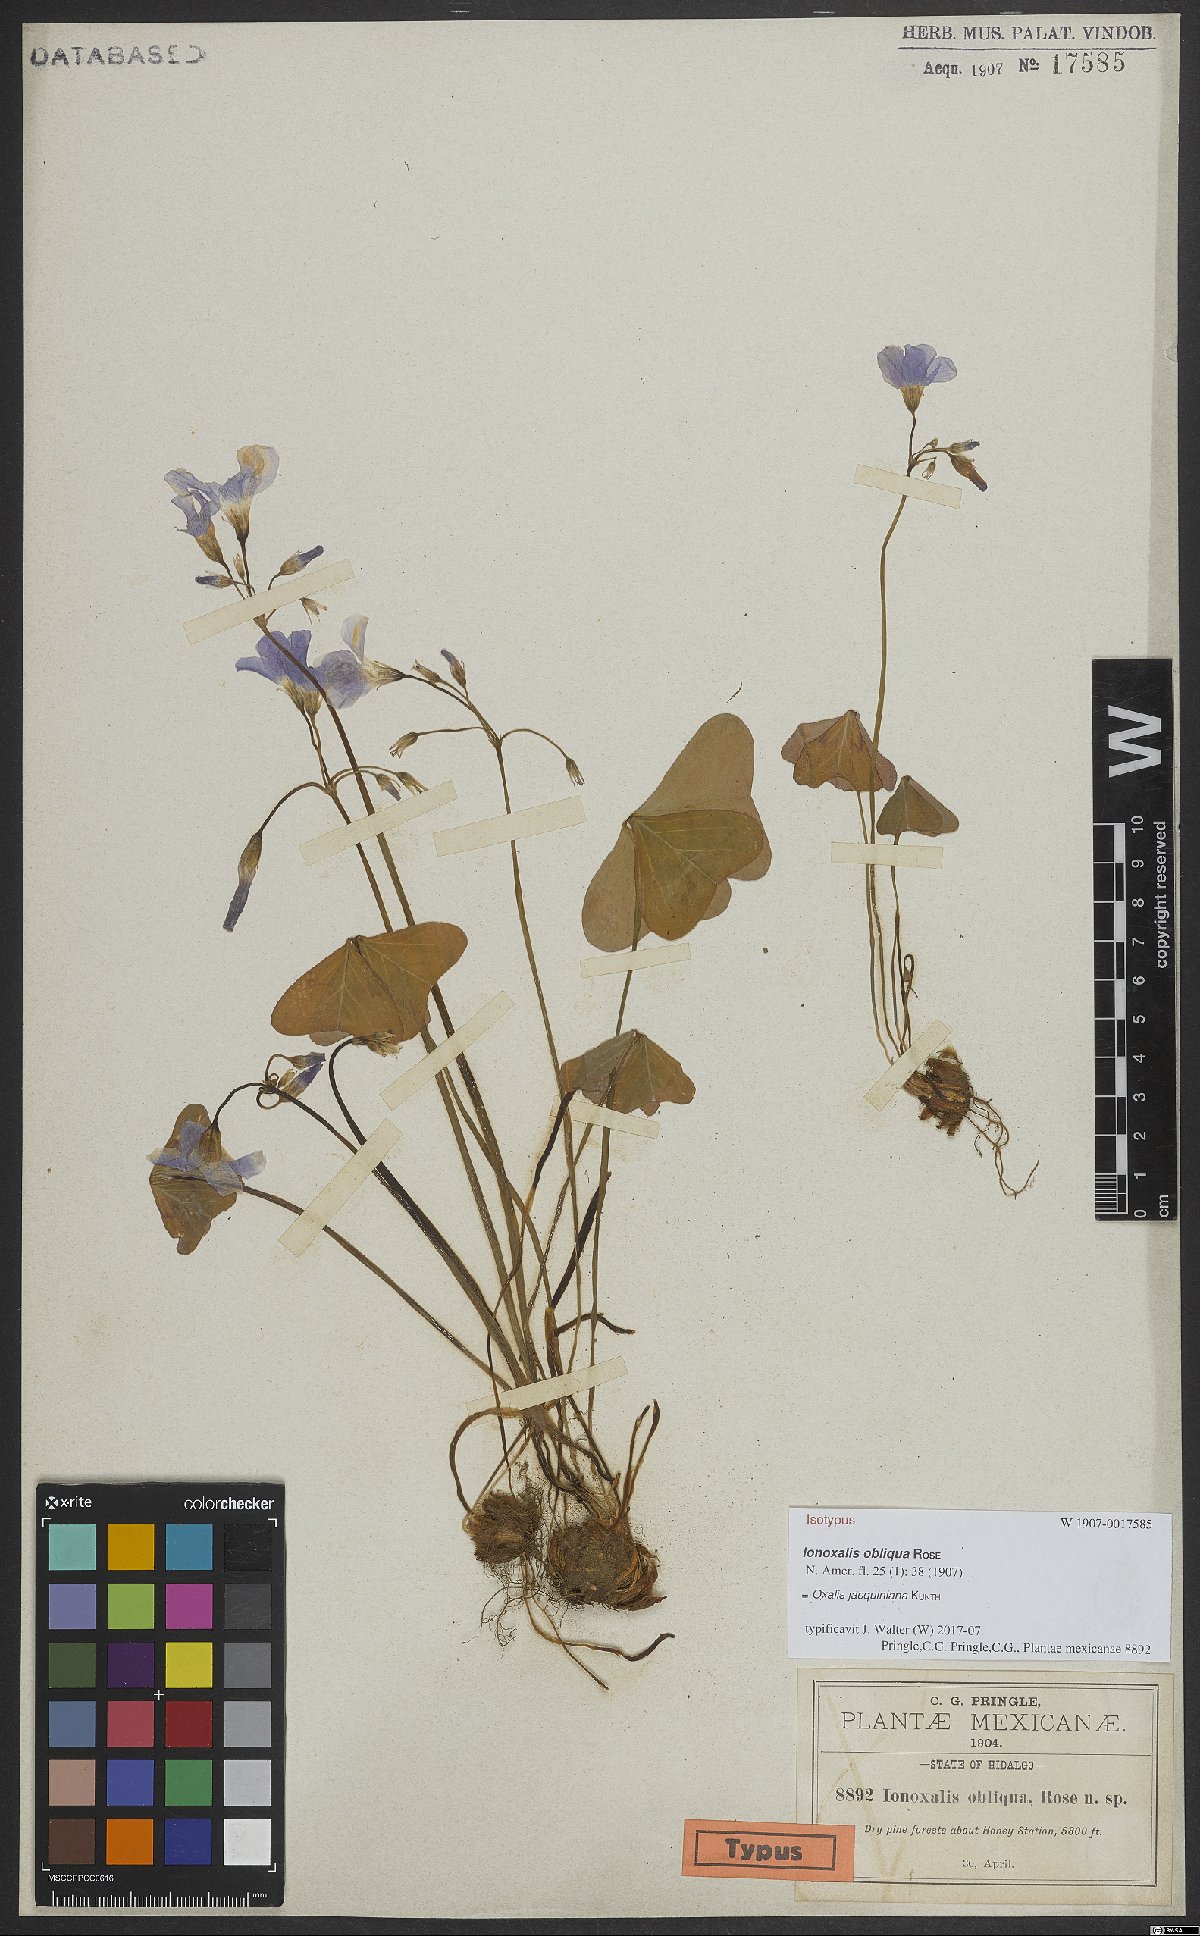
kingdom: Plantae
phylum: Tracheophyta
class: Magnoliopsida
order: Oxalidales
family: Oxalidaceae
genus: Oxalis
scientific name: Oxalis jacquiniana
